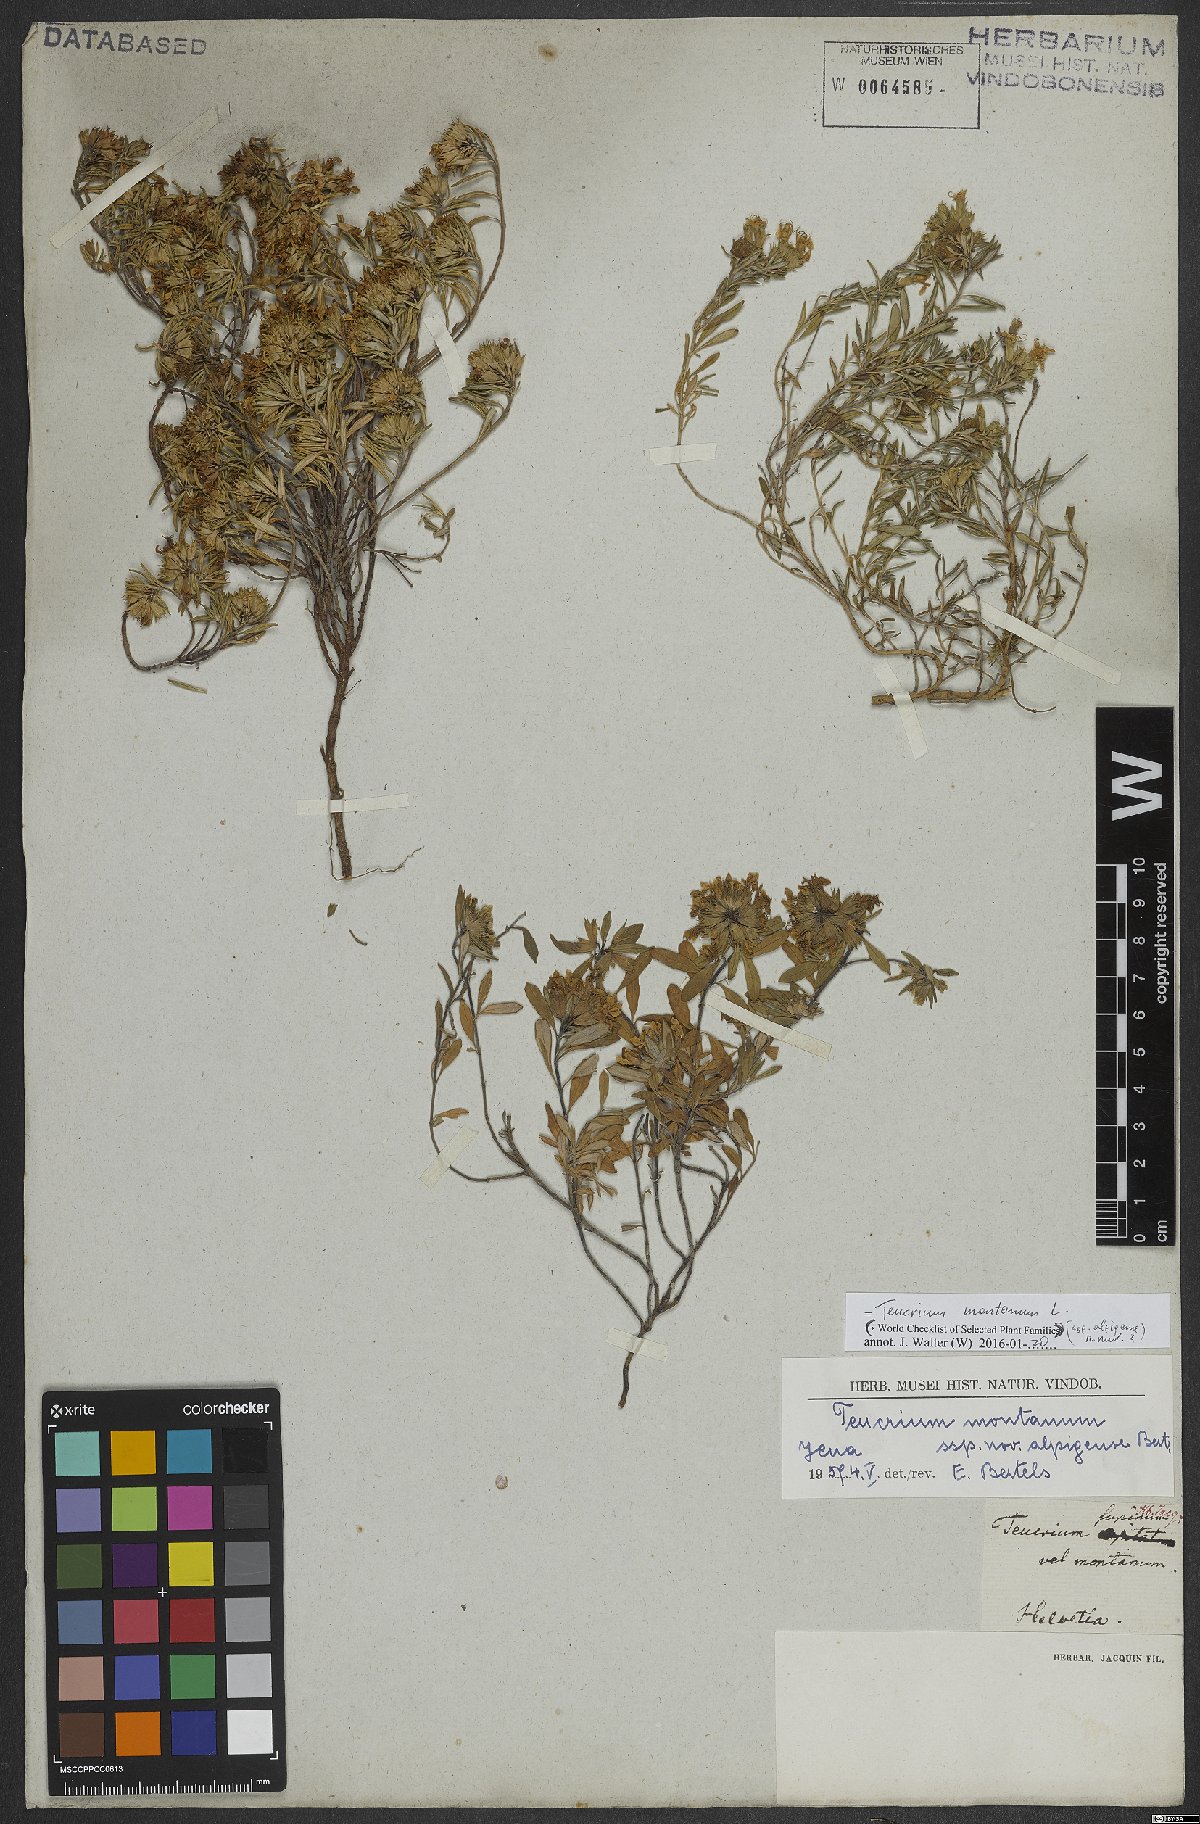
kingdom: Plantae
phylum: Tracheophyta
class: Magnoliopsida
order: Lamiales
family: Lamiaceae
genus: Teucrium
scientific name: Teucrium montanum
